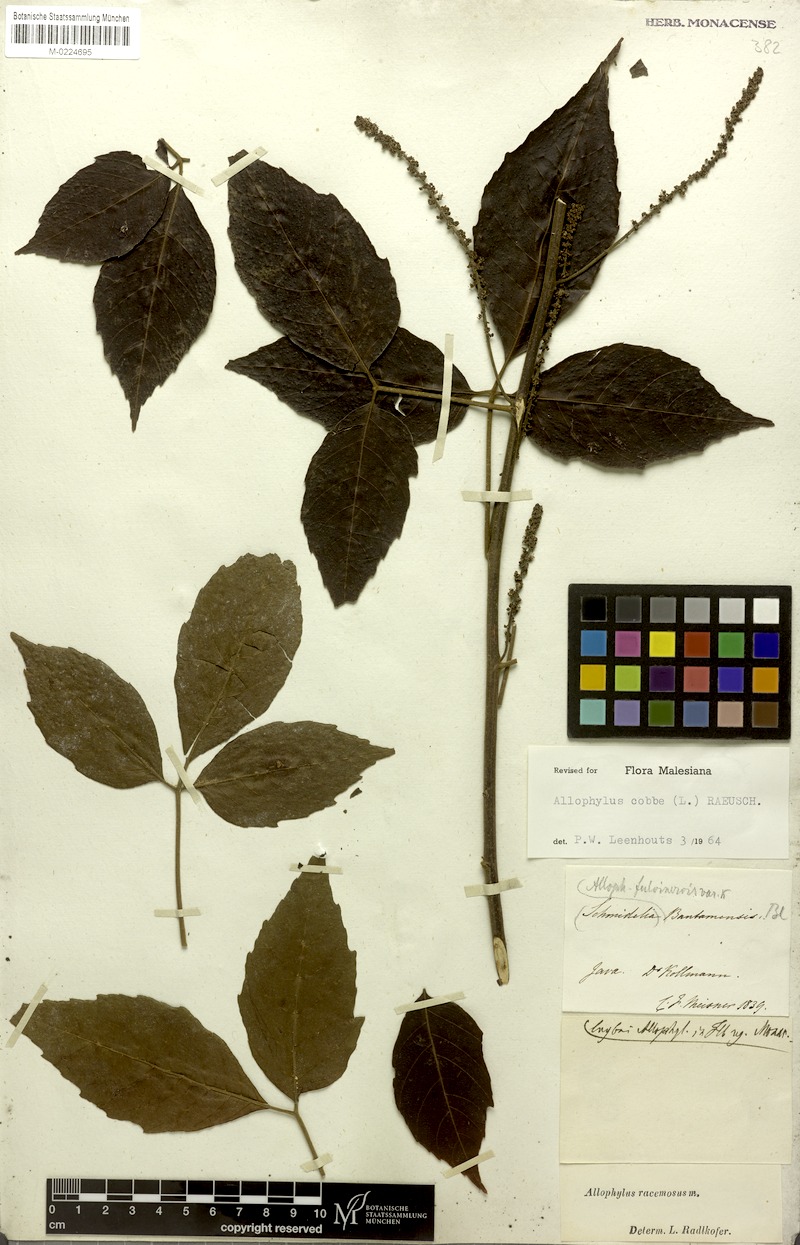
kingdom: Plantae
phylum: Tracheophyta
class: Magnoliopsida
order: Sapindales
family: Sapindaceae
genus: Allophylus
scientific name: Allophylus racemosus
